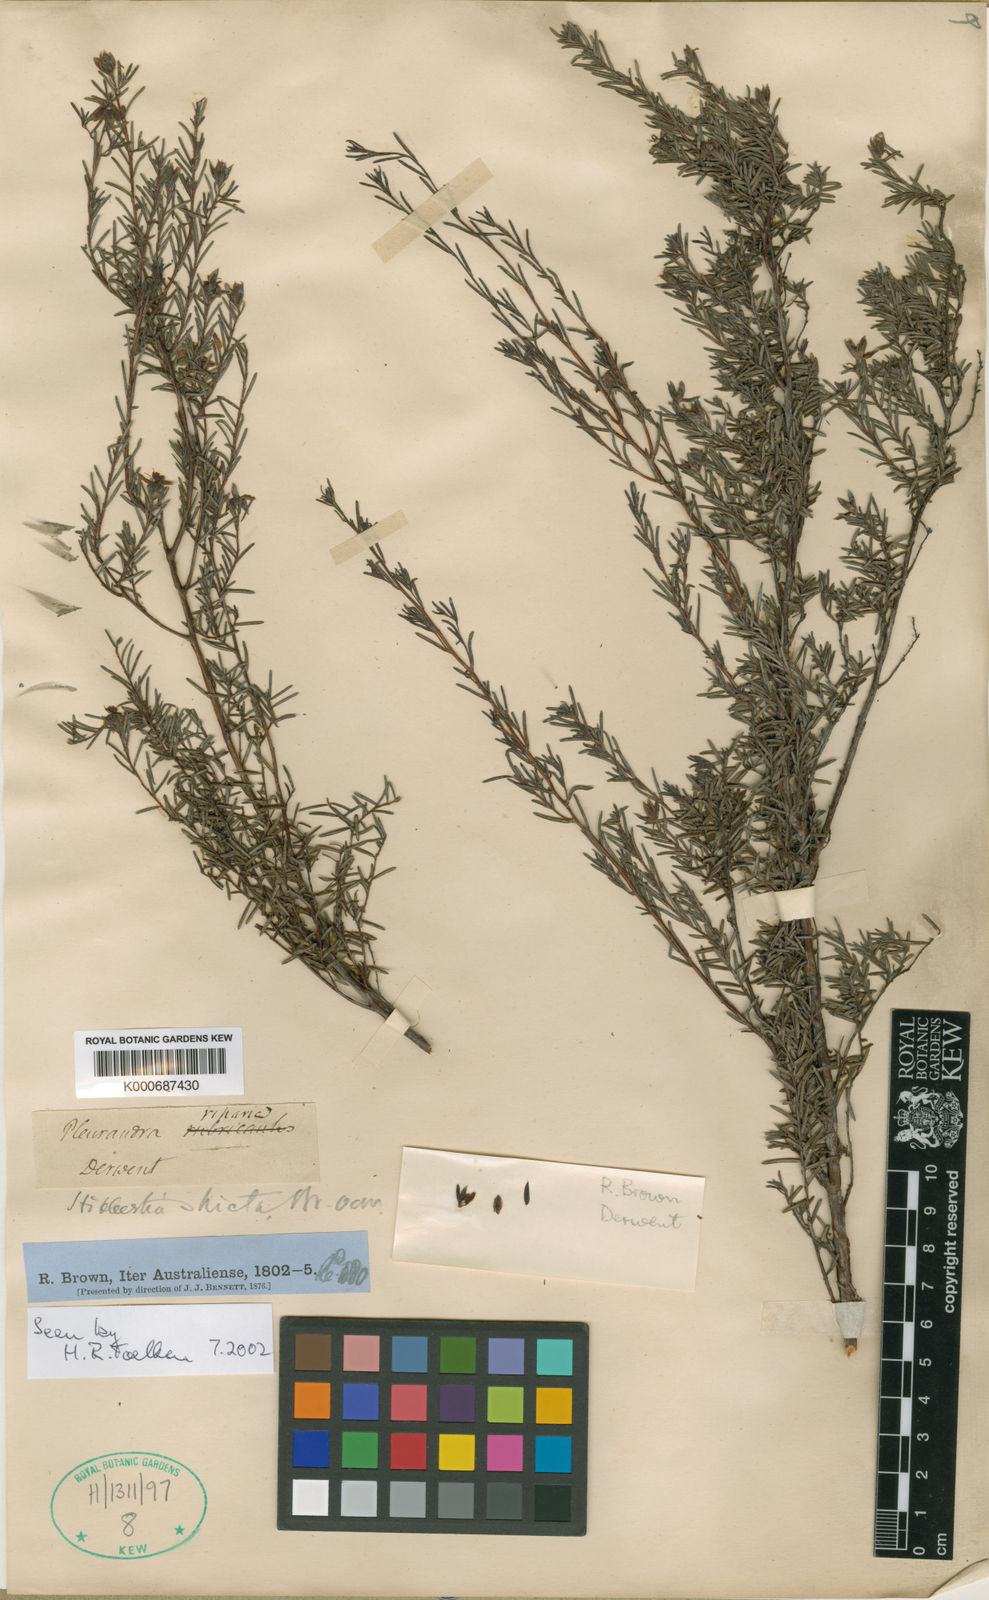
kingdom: Plantae
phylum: Tracheophyta
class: Magnoliopsida
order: Dilleniales
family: Dilleniaceae
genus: Hibbertia
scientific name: Hibbertia
